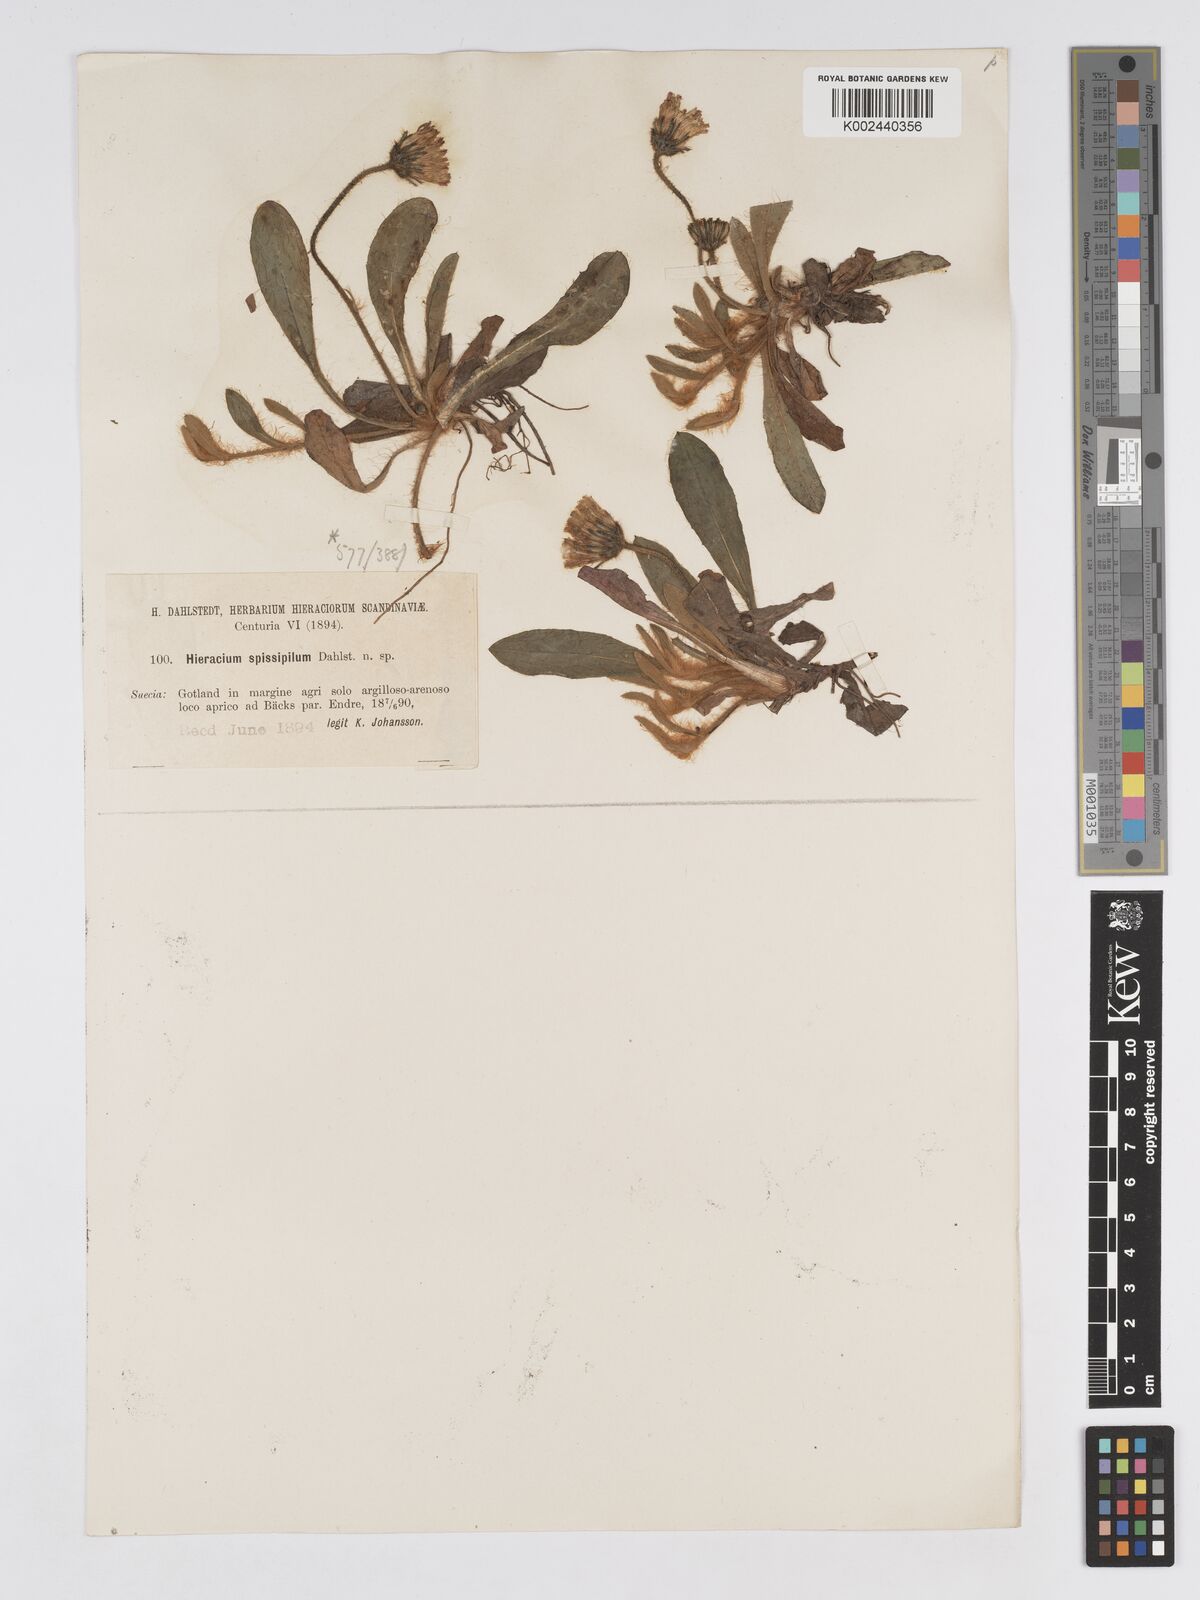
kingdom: Plantae
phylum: Tracheophyta
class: Magnoliopsida
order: Asterales
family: Asteraceae
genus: Pilosella
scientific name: Pilosella officinarum
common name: Mouse-ear hawkweed
